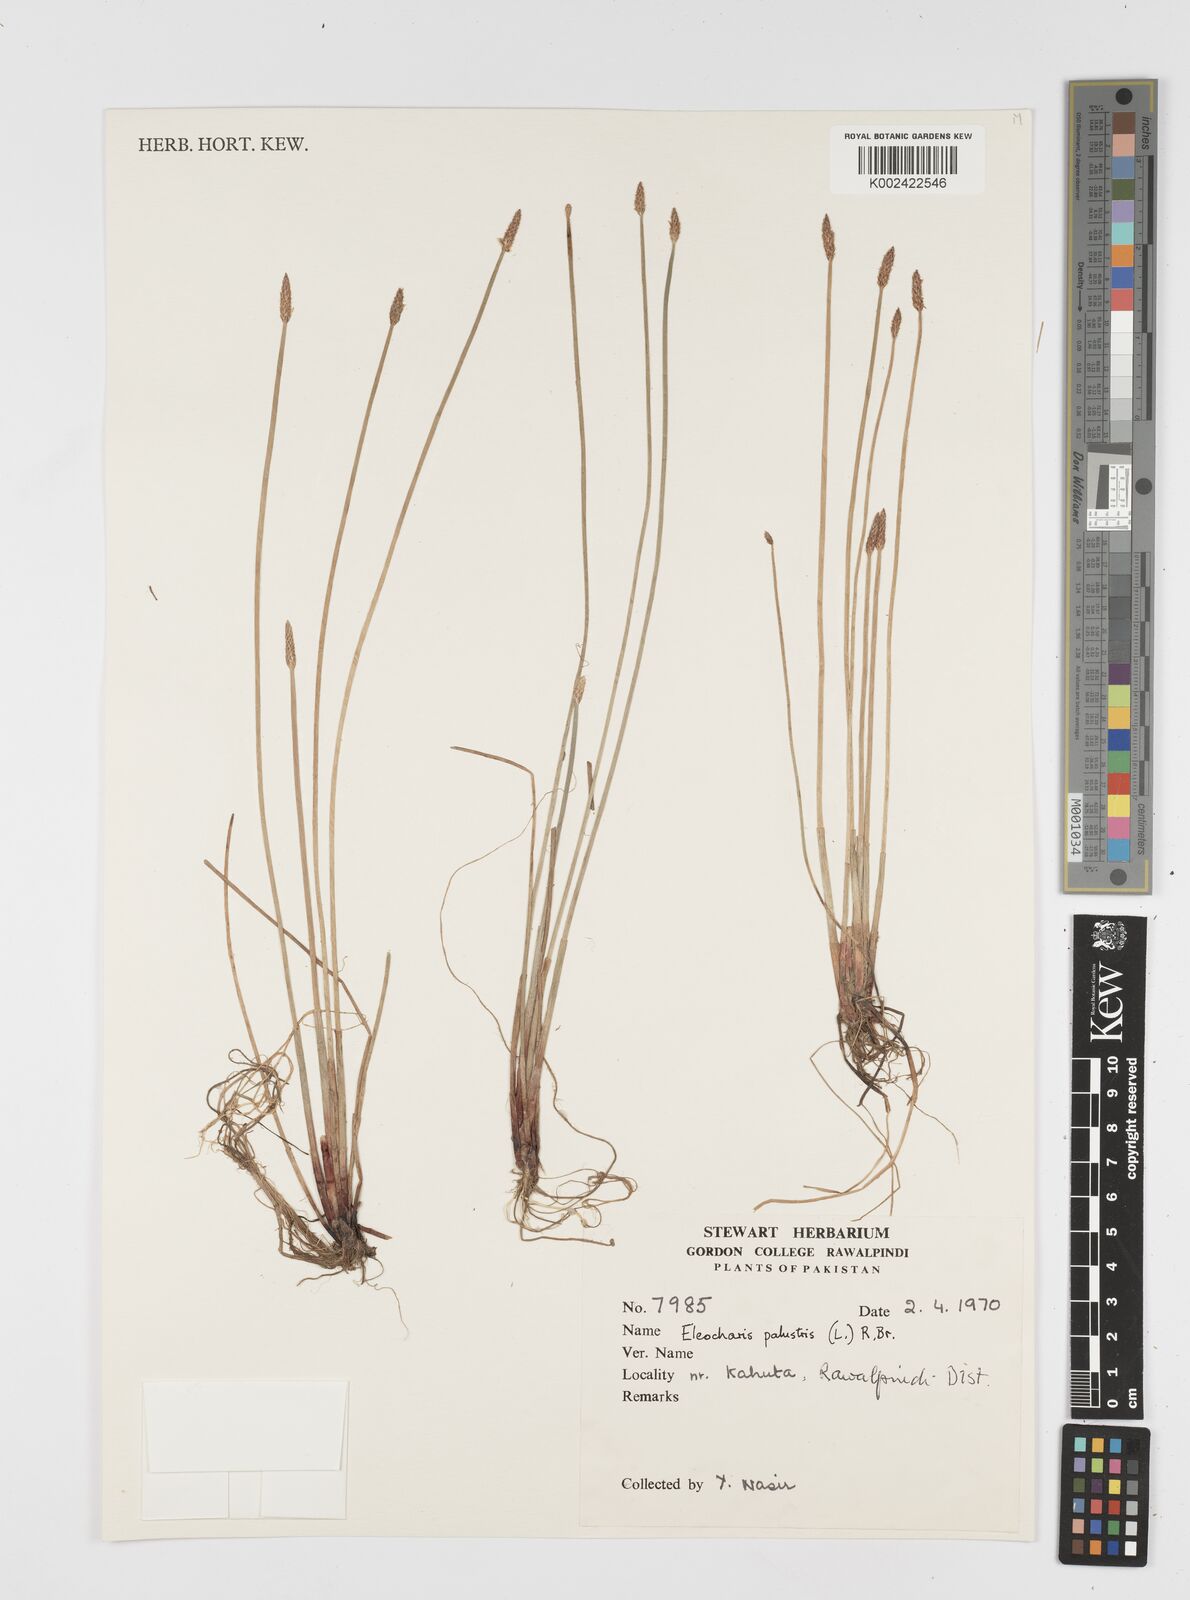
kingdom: Plantae
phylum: Tracheophyta
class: Liliopsida
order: Poales
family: Cyperaceae
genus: Eleocharis
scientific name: Eleocharis palustris
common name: Common spike-rush
